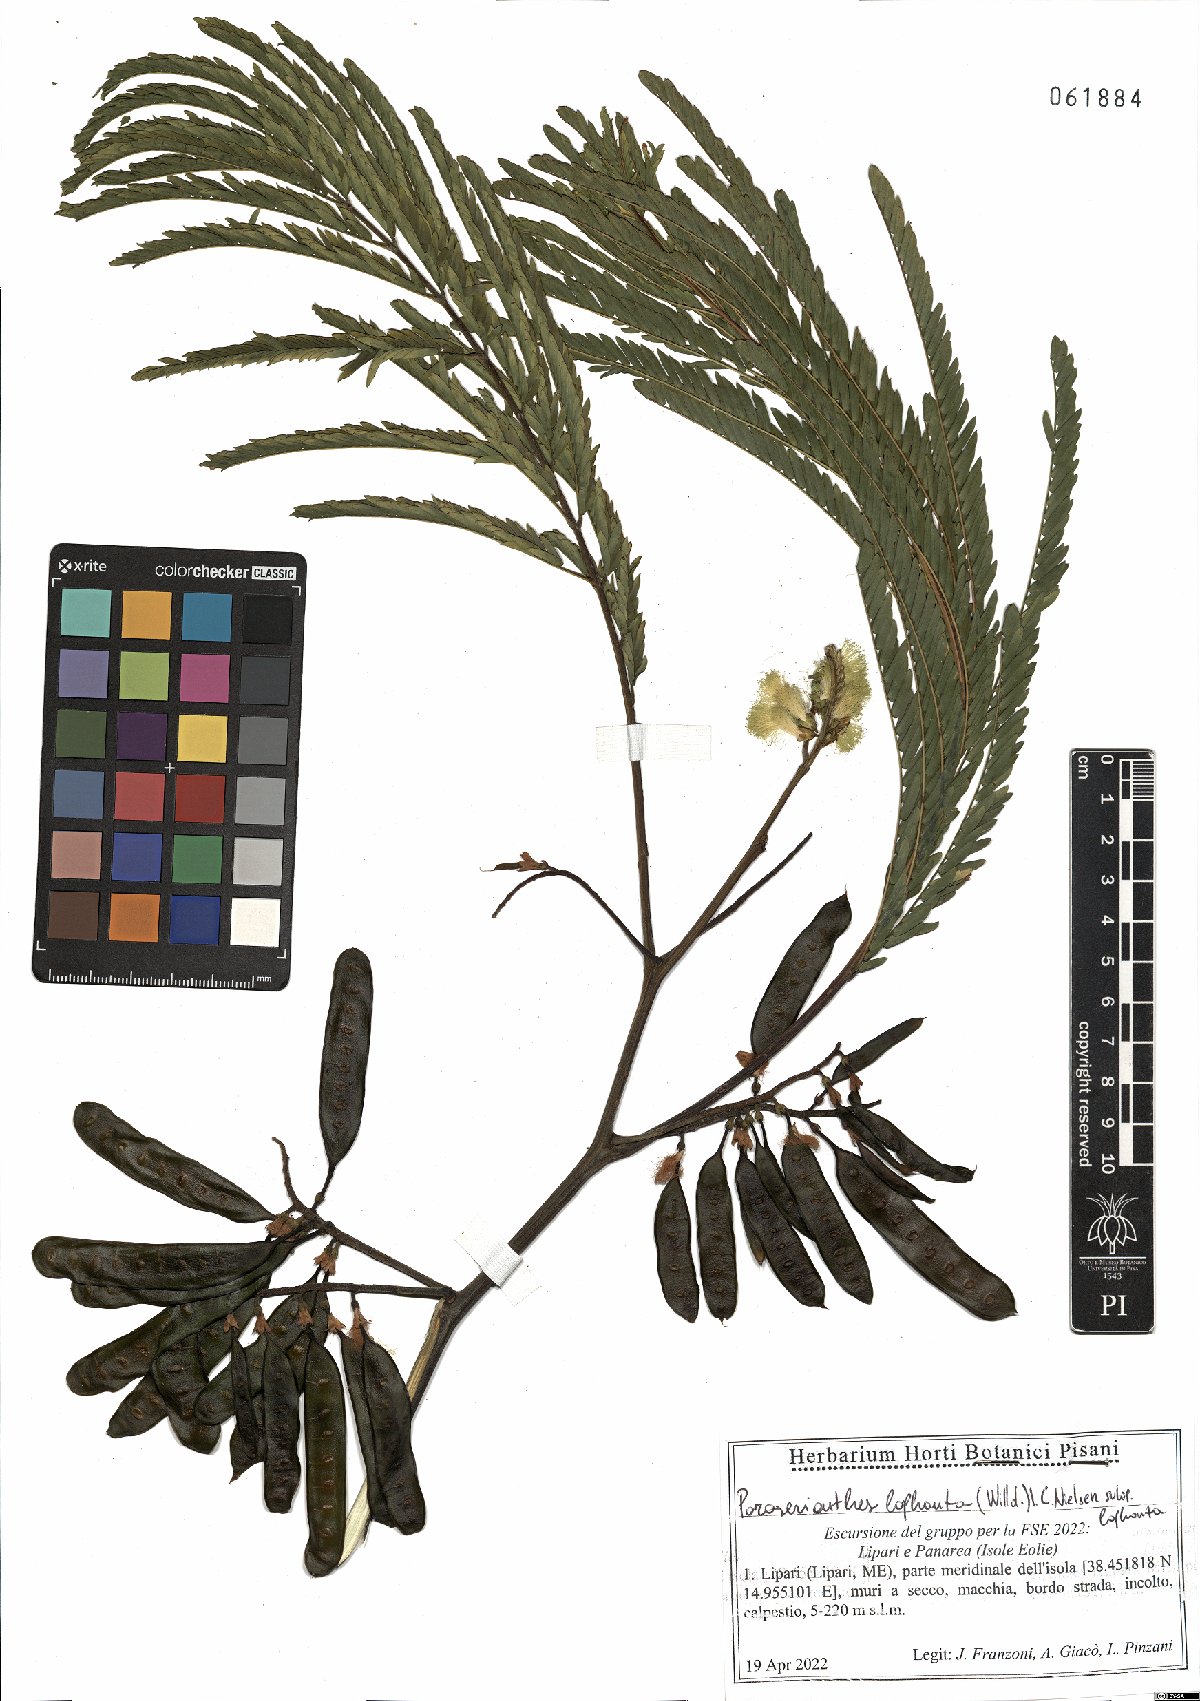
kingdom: Plantae
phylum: Tracheophyta
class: Magnoliopsida
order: Fabales
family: Fabaceae
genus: Paraserianthes
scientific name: Paraserianthes lophantha
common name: Plume albizia
